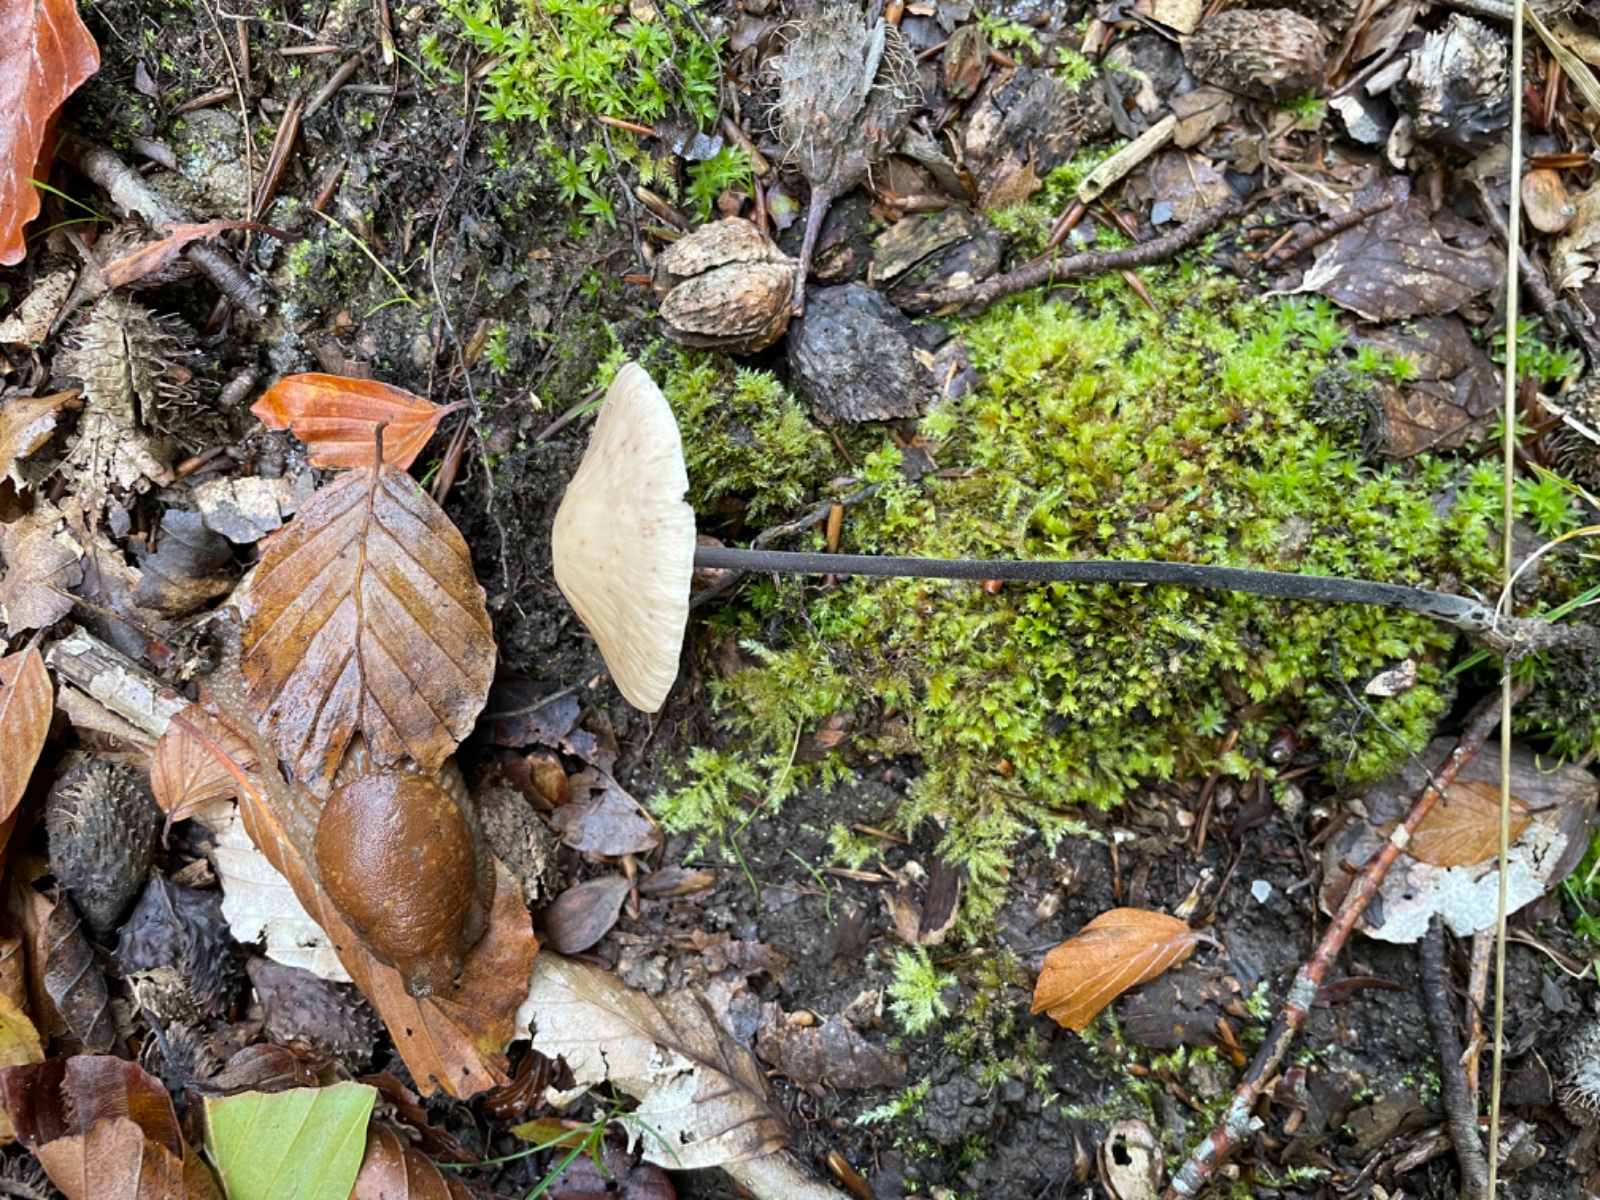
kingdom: Fungi
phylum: Basidiomycota
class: Agaricomycetes
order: Agaricales
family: Omphalotaceae
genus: Mycetinis
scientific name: Mycetinis alliaceus
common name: stor løghat
